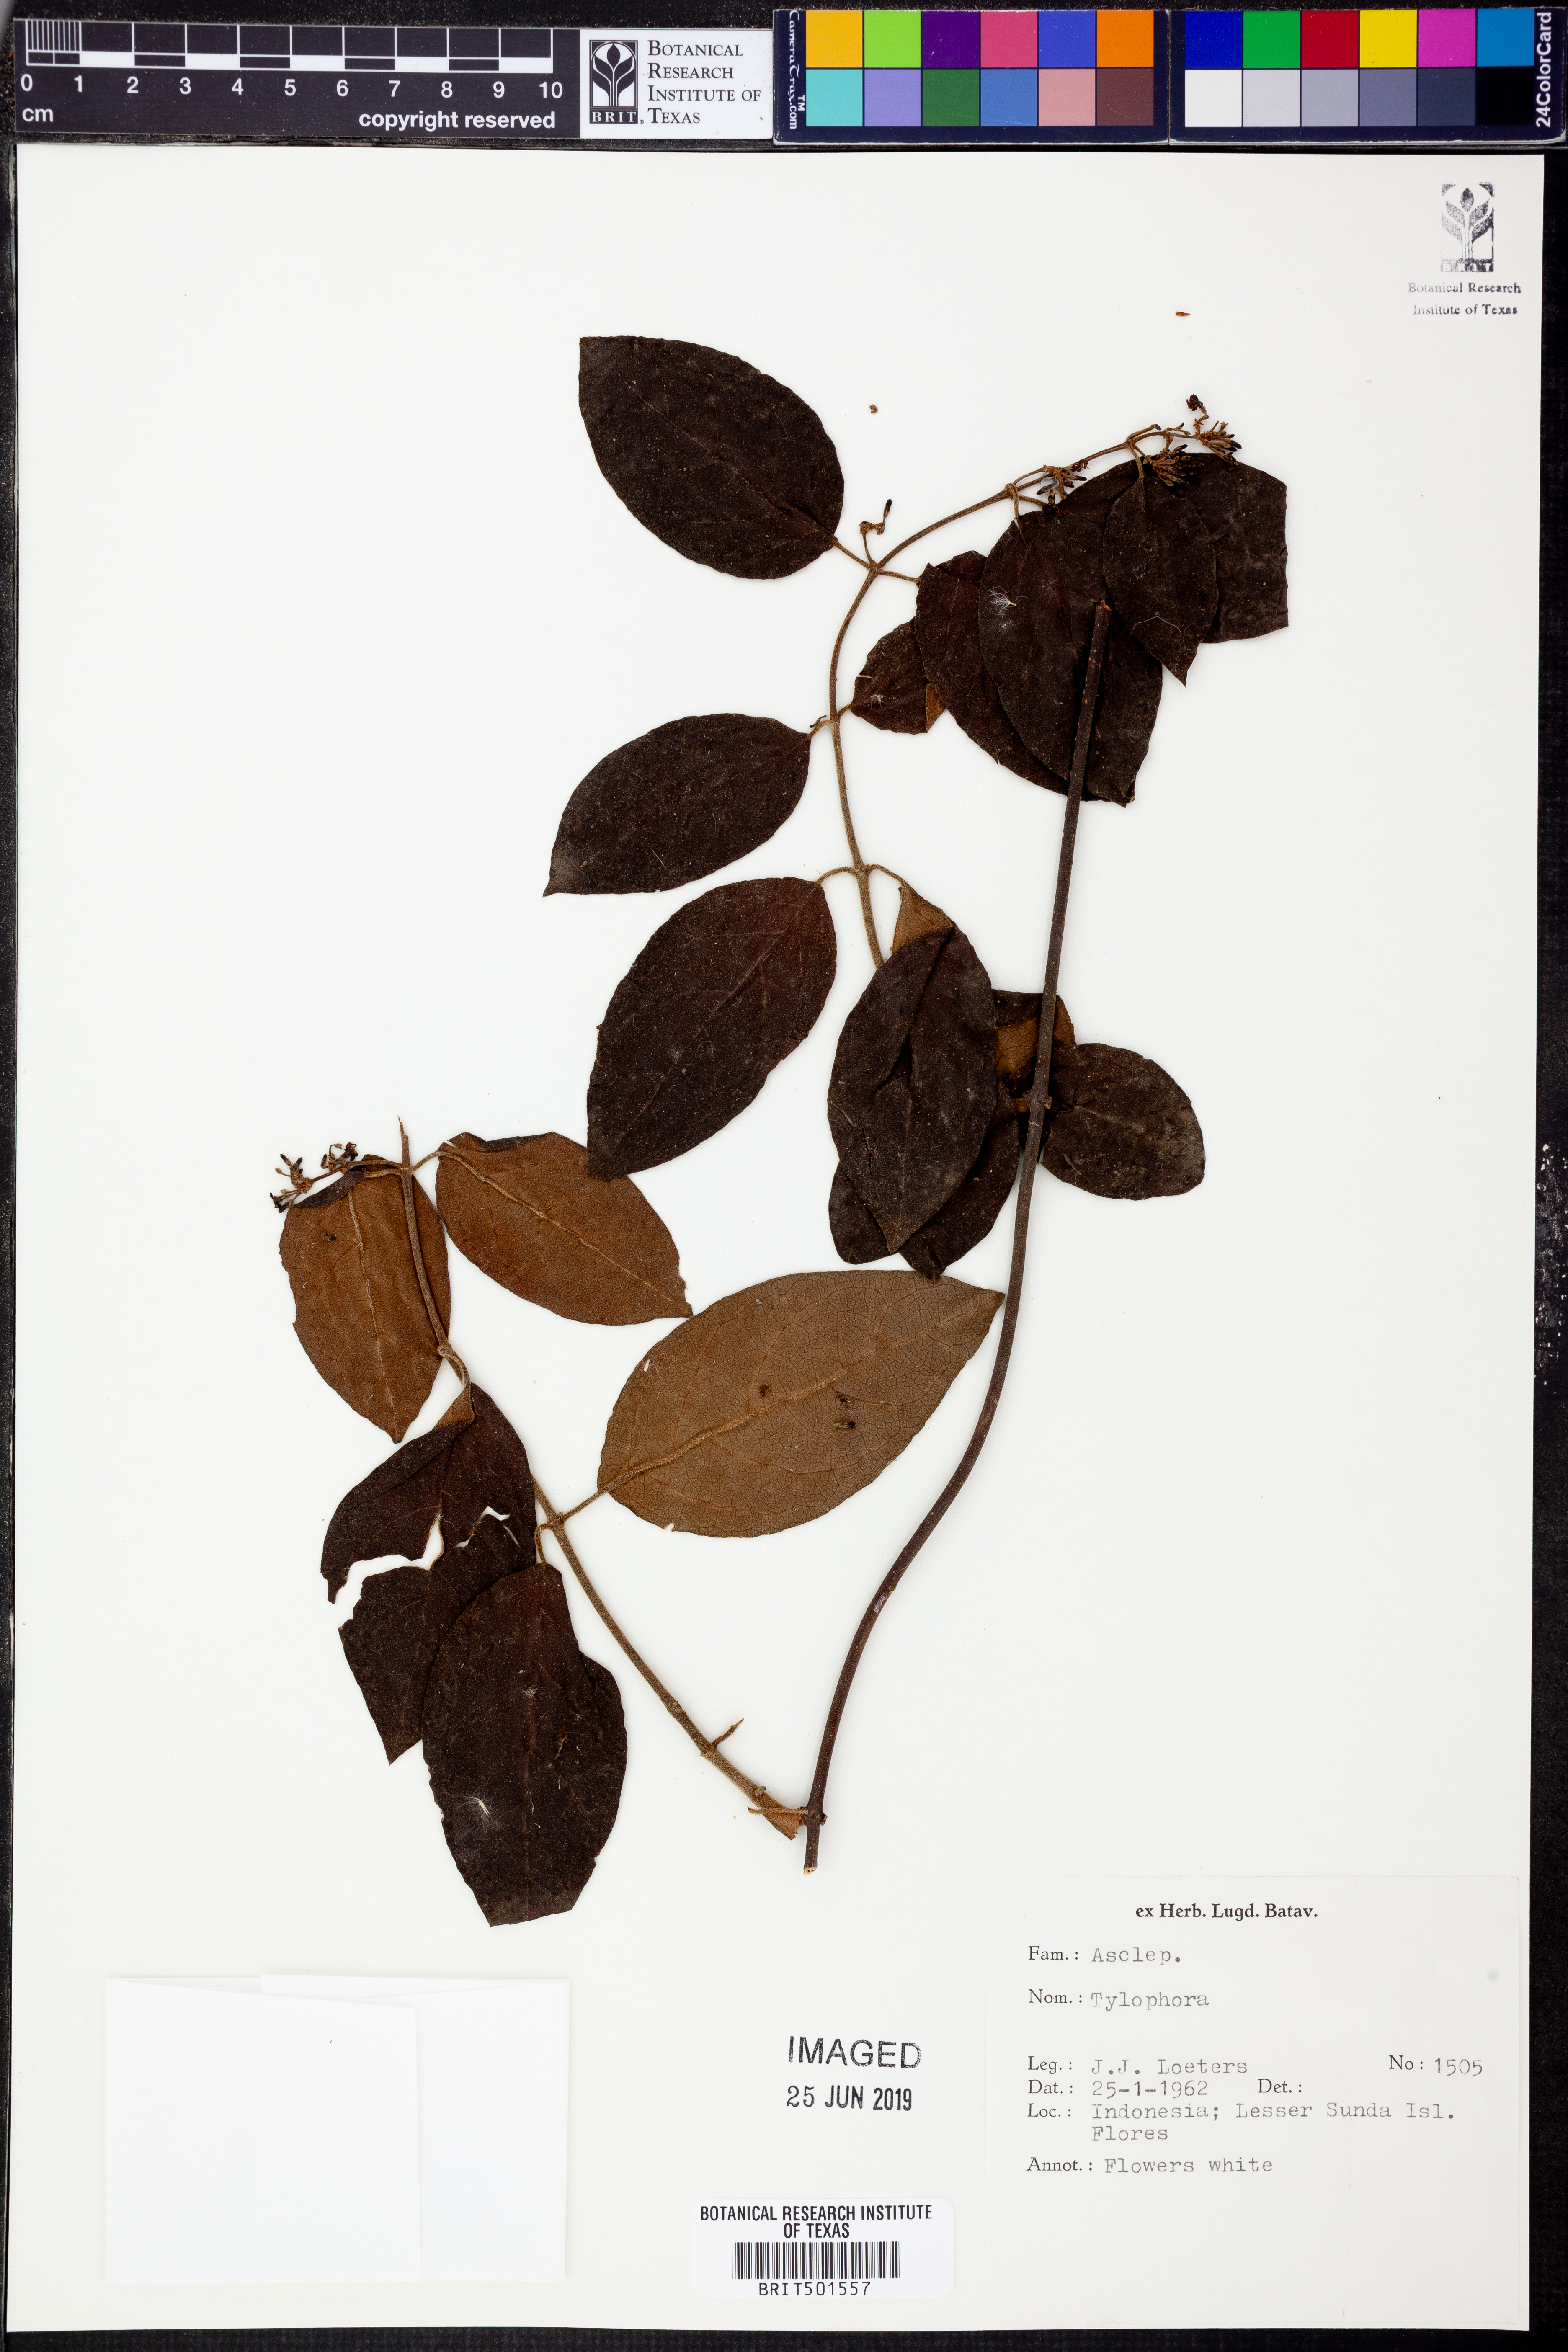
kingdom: Plantae
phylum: Tracheophyta
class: Magnoliopsida
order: Gentianales
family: Apocynaceae
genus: Vincetoxicum
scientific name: Vincetoxicum
